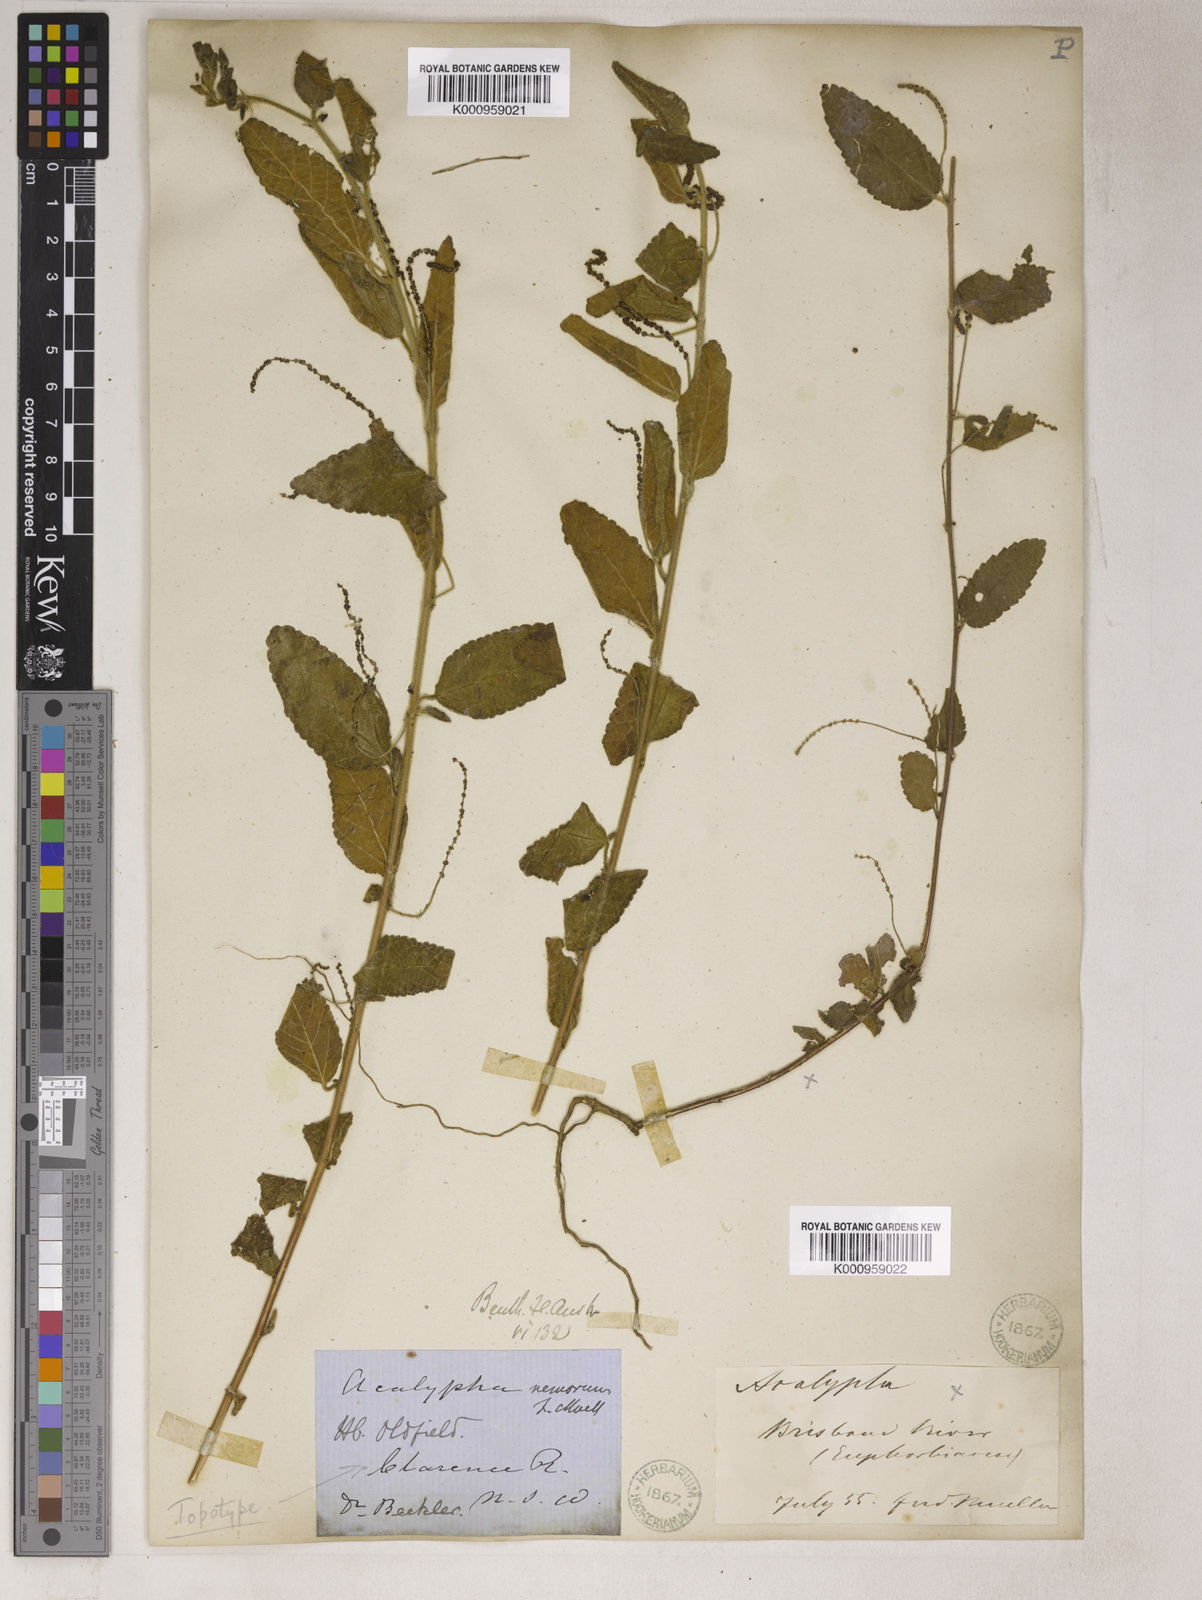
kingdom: Plantae
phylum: Tracheophyta
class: Magnoliopsida
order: Malpighiales
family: Euphorbiaceae
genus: Acalypha
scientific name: Acalypha
